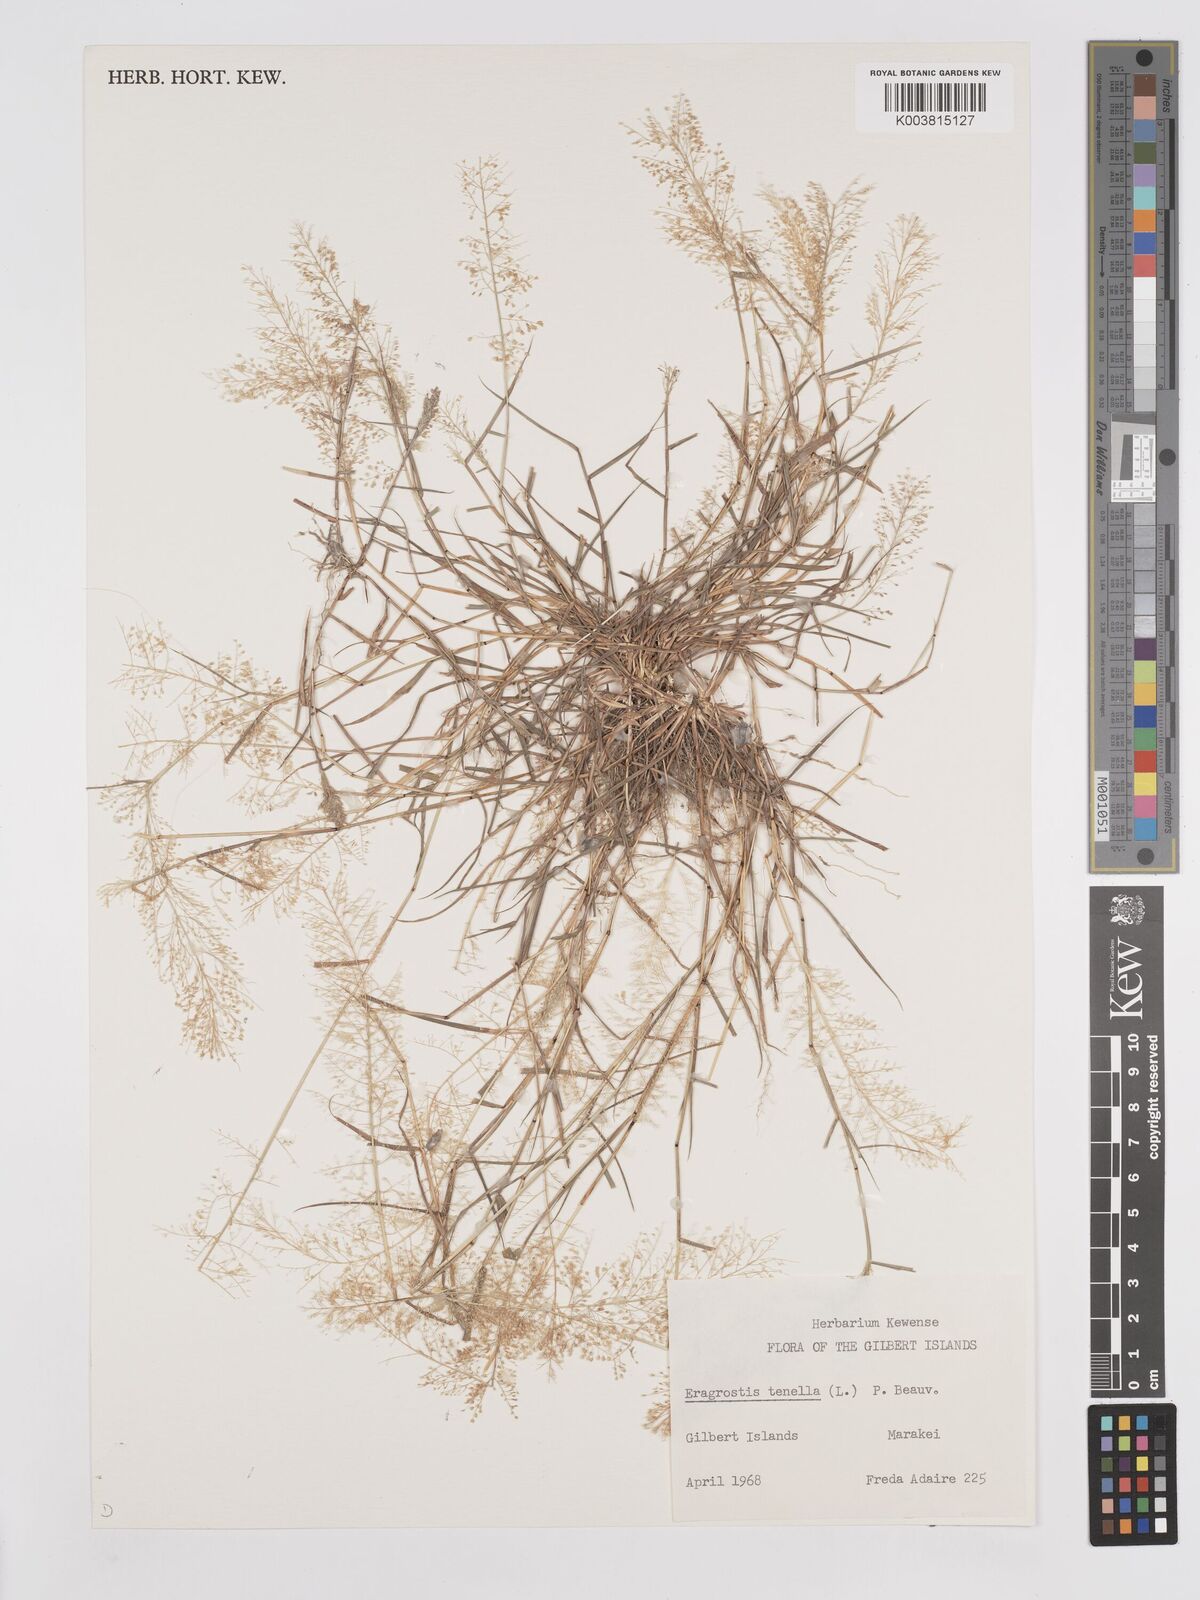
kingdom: Plantae
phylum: Tracheophyta
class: Liliopsida
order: Poales
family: Poaceae
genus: Eragrostis
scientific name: Eragrostis tenella
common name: Japanese lovegrass
